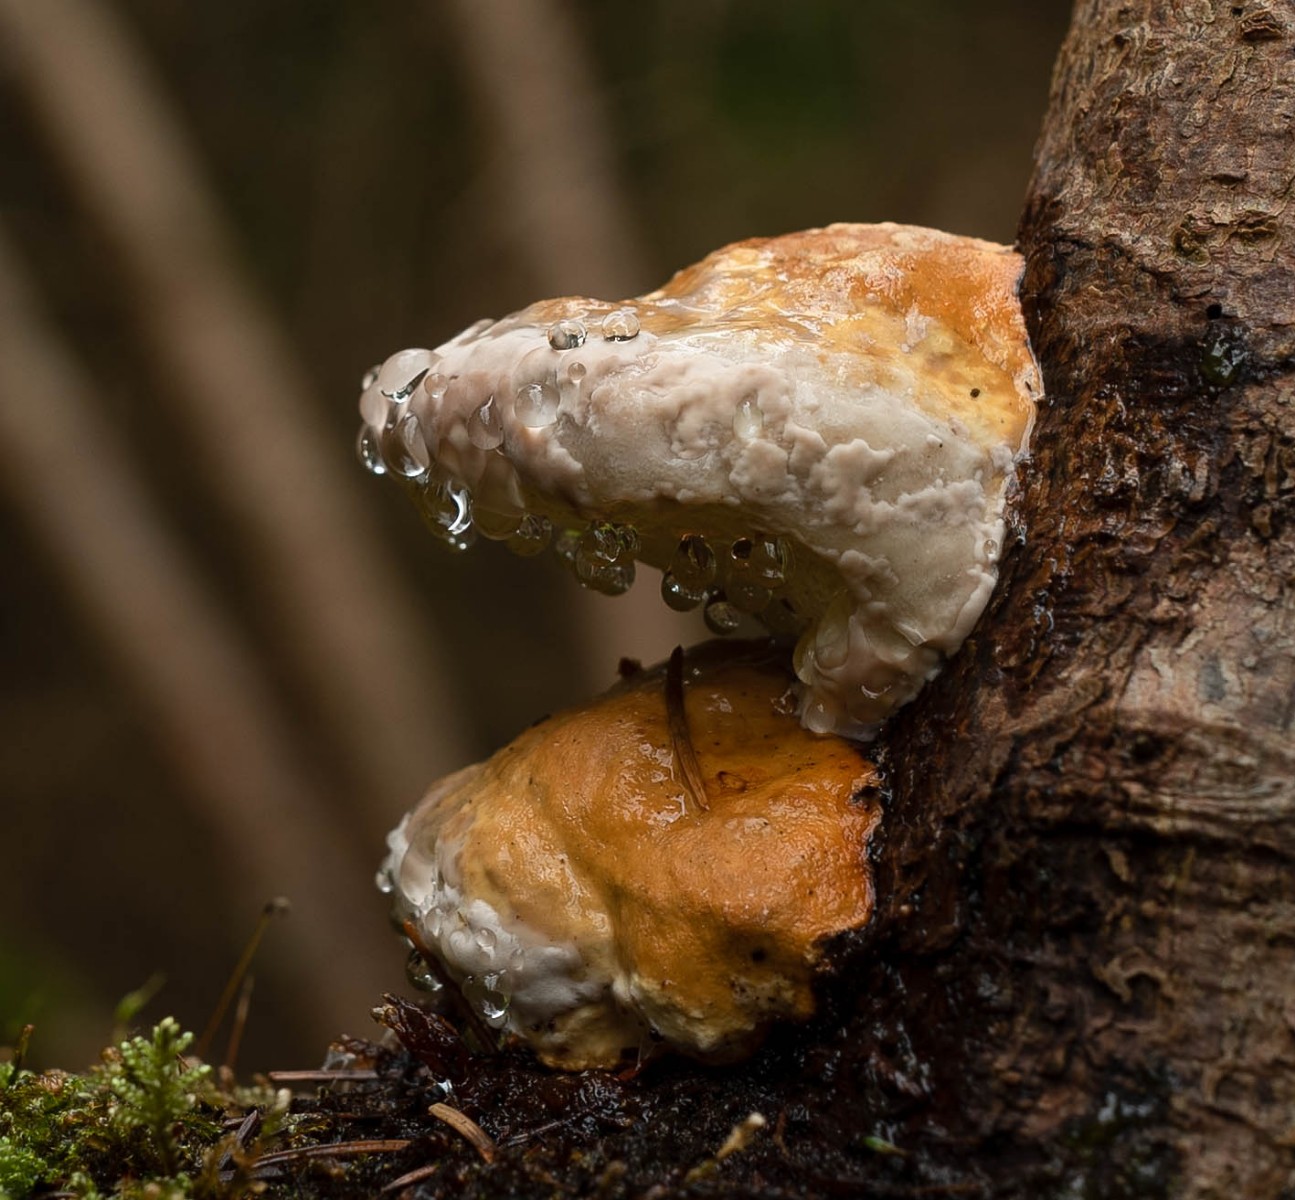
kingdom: Fungi
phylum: Basidiomycota
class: Agaricomycetes
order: Polyporales
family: Fomitopsidaceae
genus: Fomitopsis
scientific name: Fomitopsis pinicola
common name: randbæltet hovporesvamp
